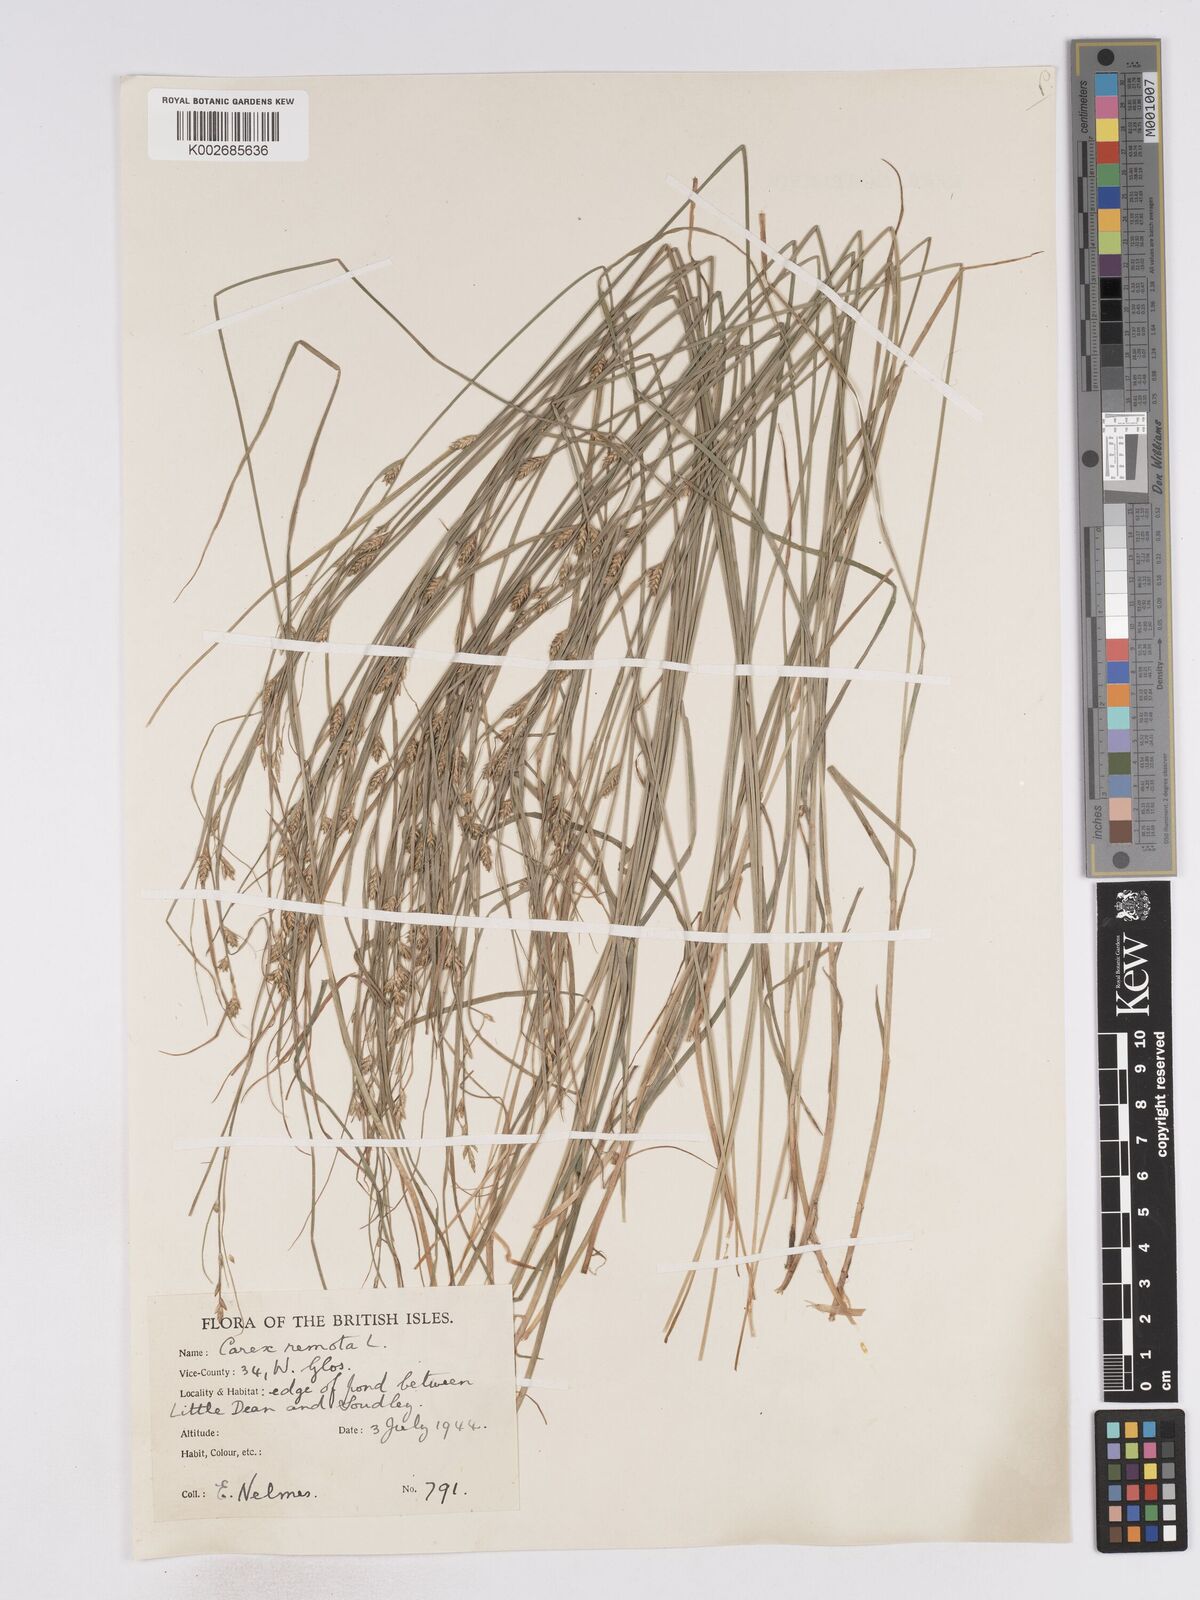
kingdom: Plantae
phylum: Tracheophyta
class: Liliopsida
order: Poales
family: Cyperaceae
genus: Carex
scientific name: Carex remota
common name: Remote sedge
